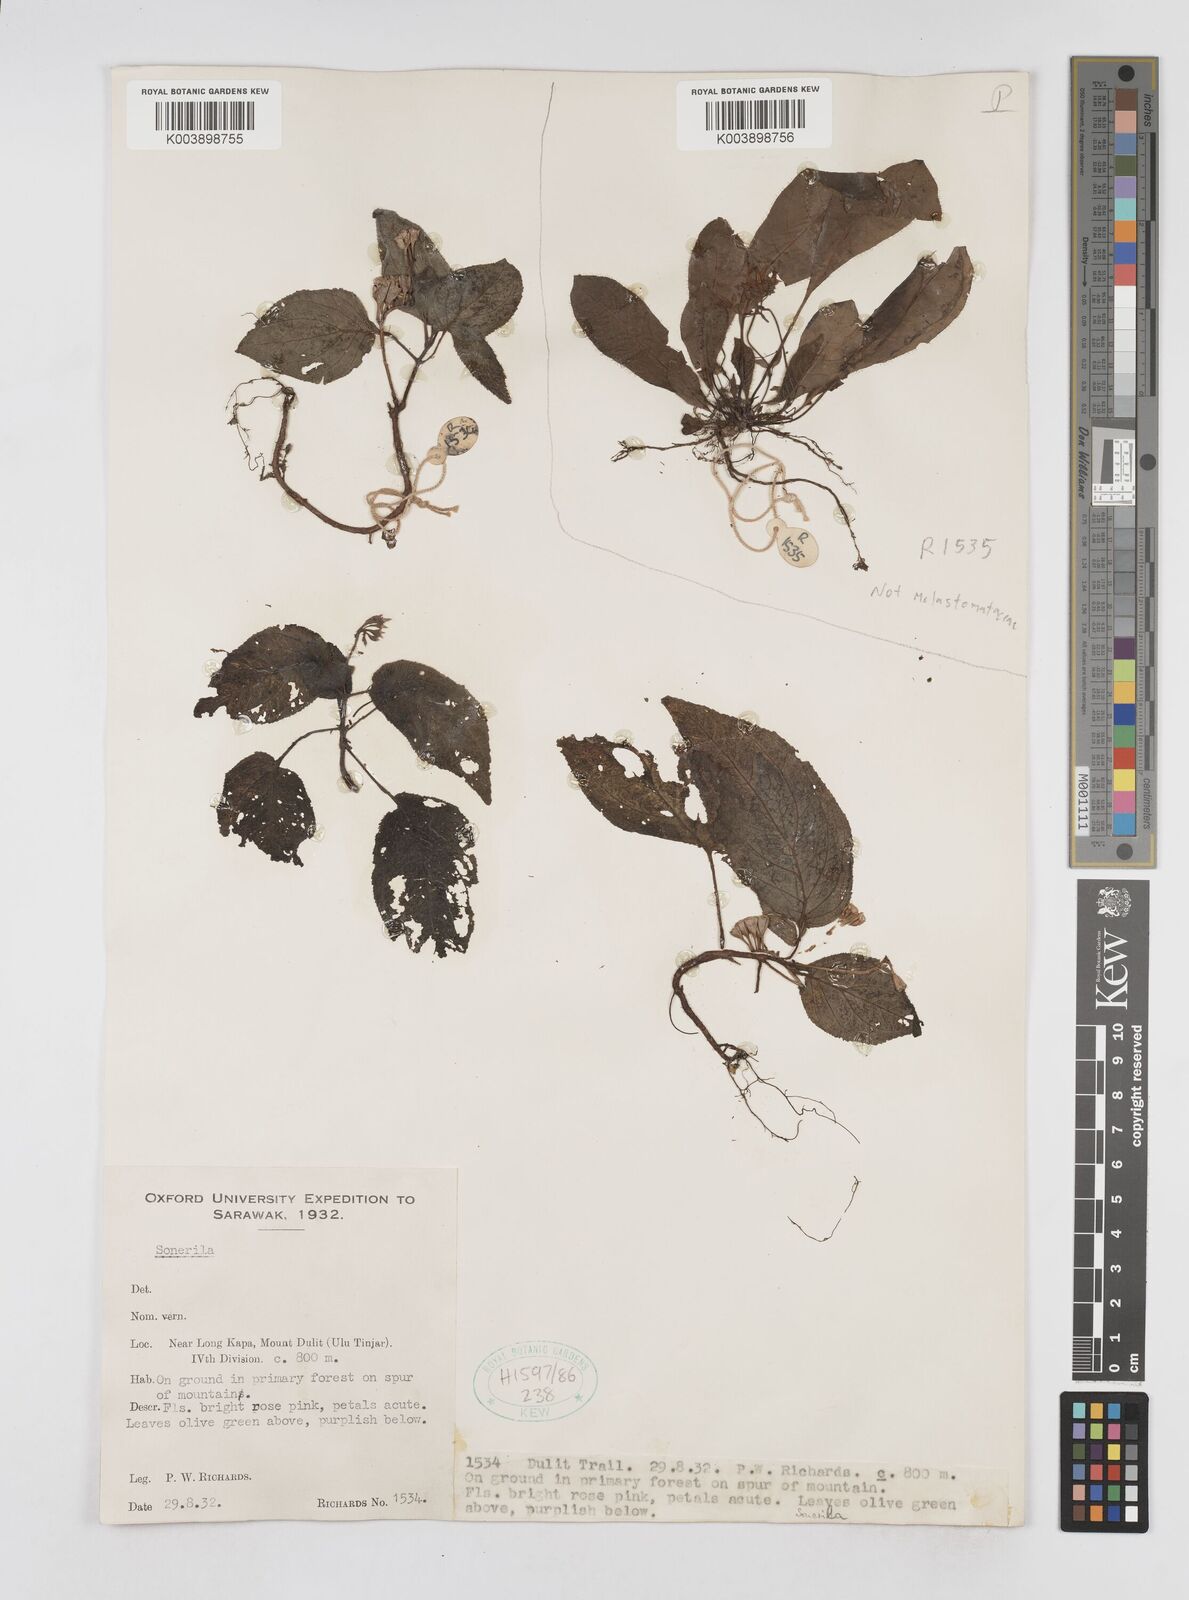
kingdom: Plantae
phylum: Tracheophyta
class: Magnoliopsida
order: Myrtales
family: Melastomataceae
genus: Sonerila
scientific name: Sonerila
